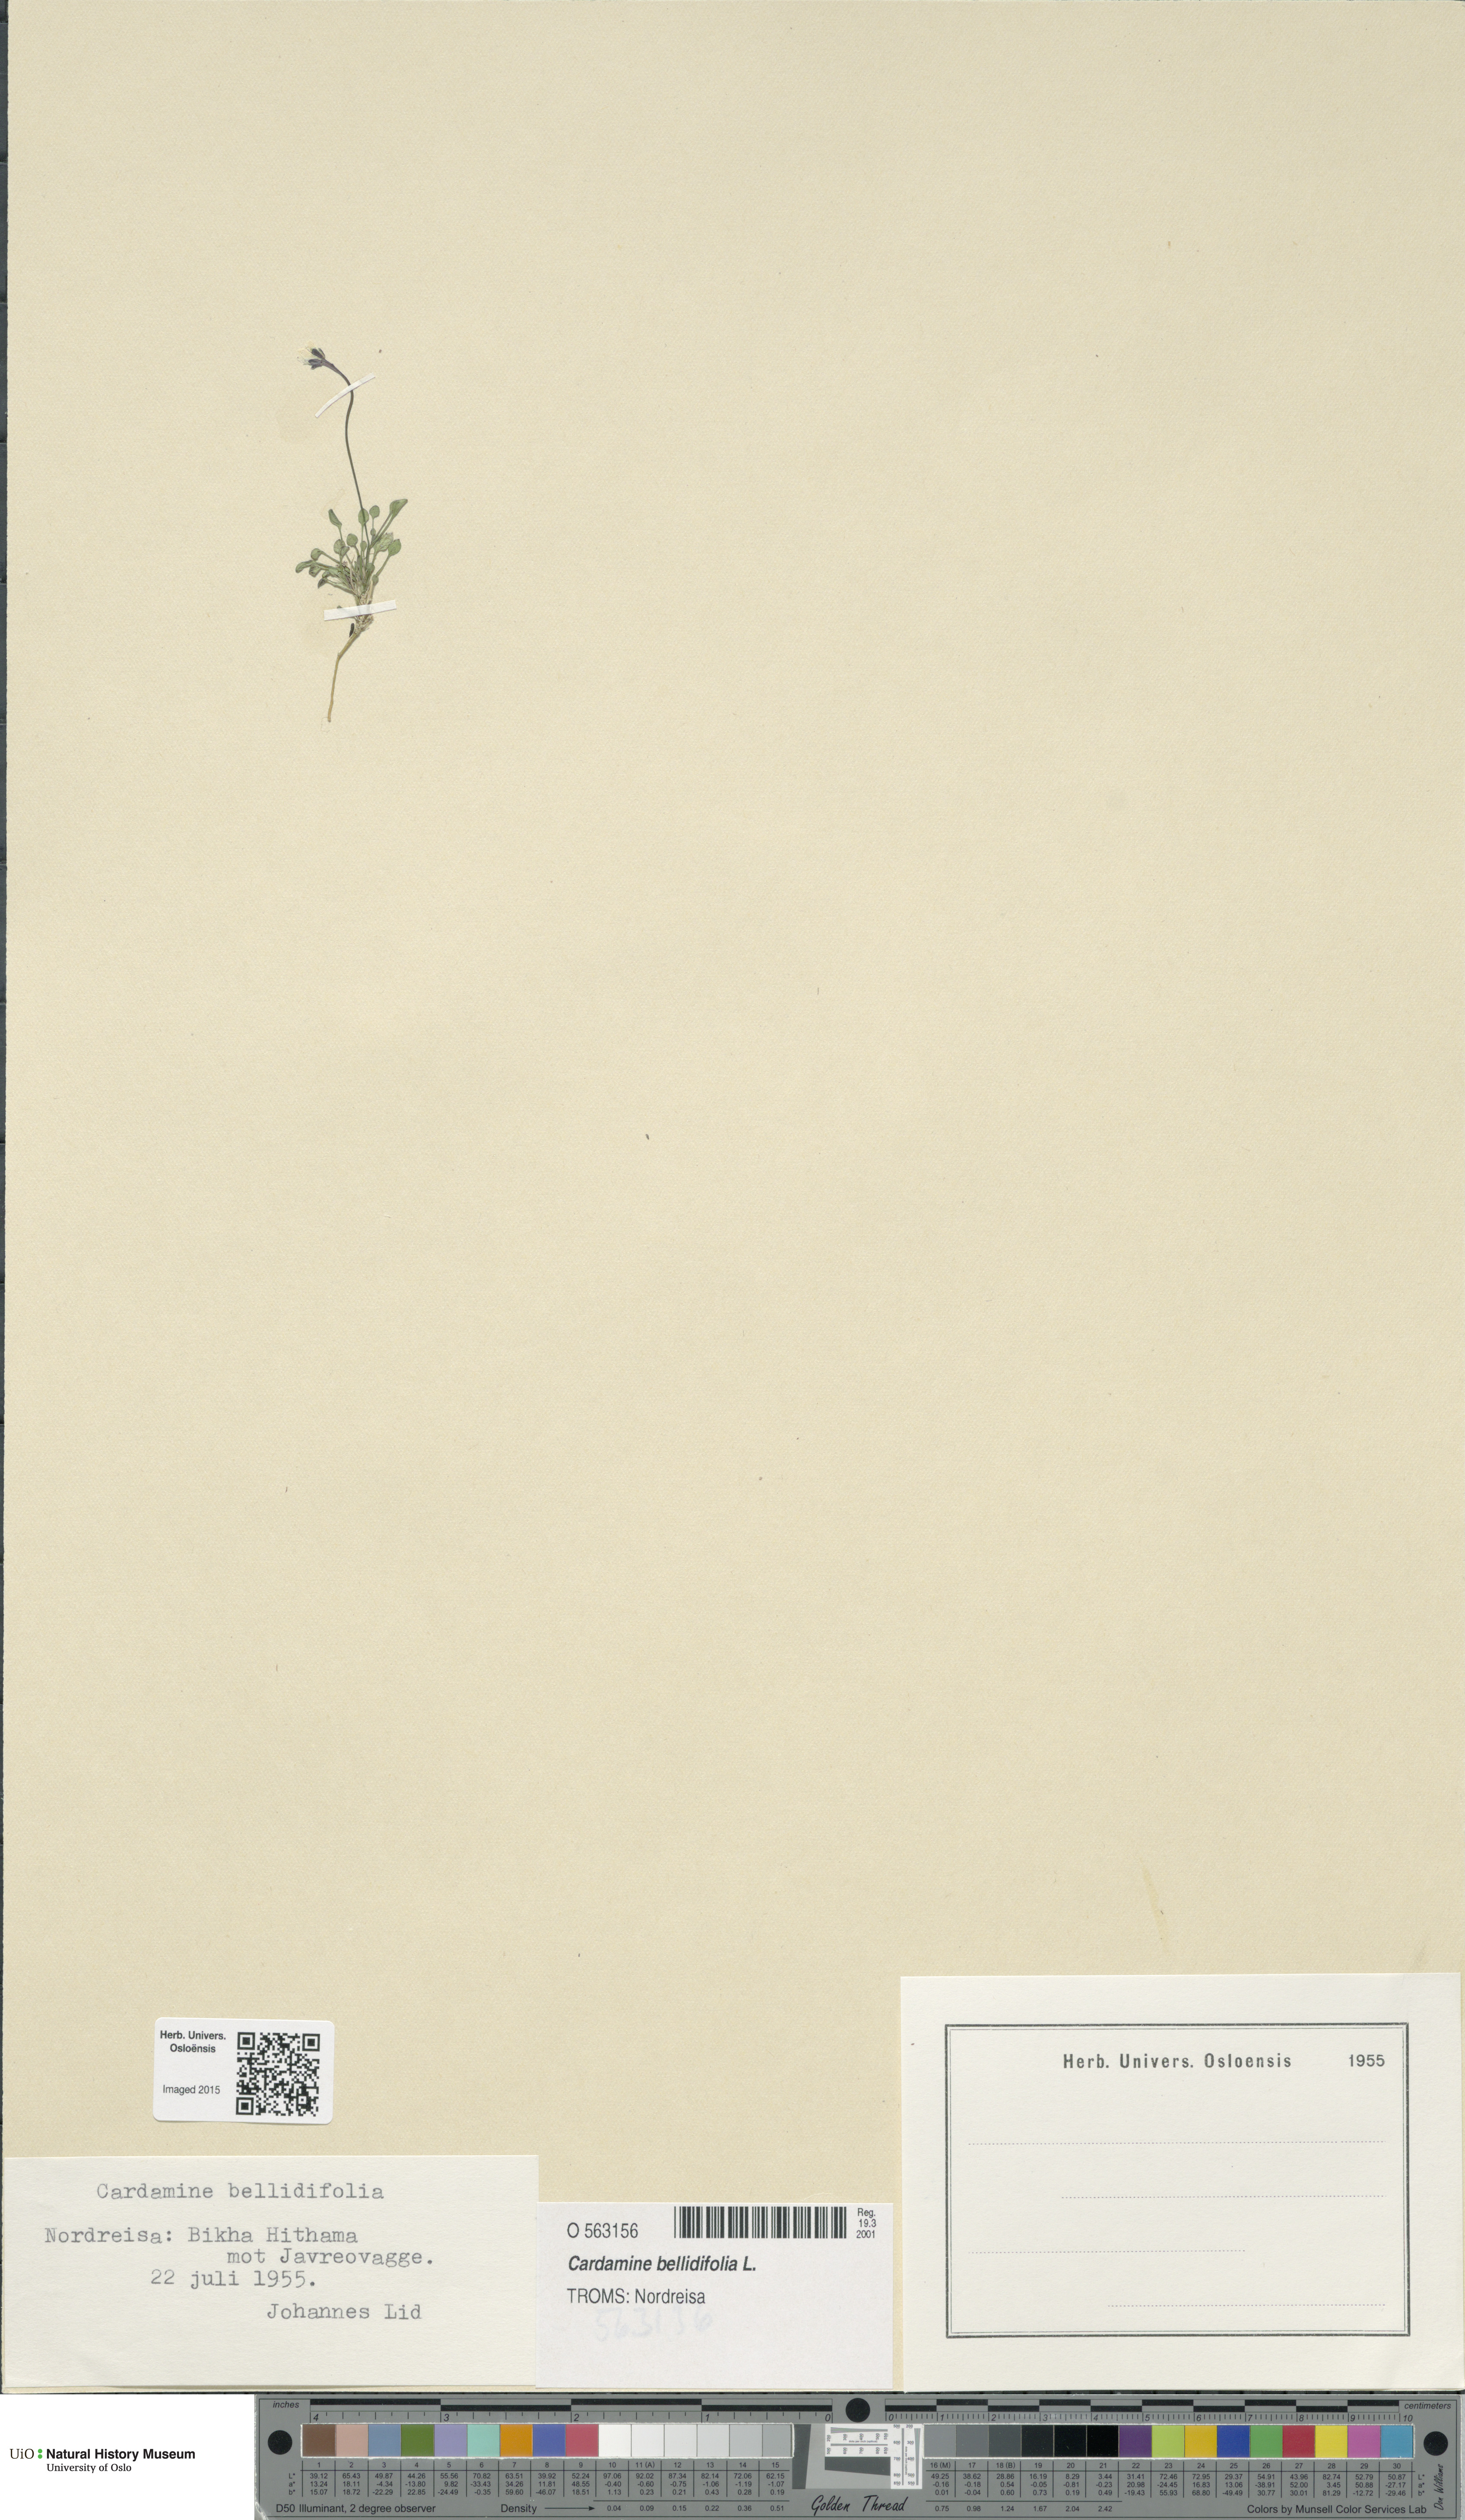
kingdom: Plantae
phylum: Tracheophyta
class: Magnoliopsida
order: Brassicales
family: Brassicaceae
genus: Cardamine
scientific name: Cardamine bellidifolia
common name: Alpine bittercress
